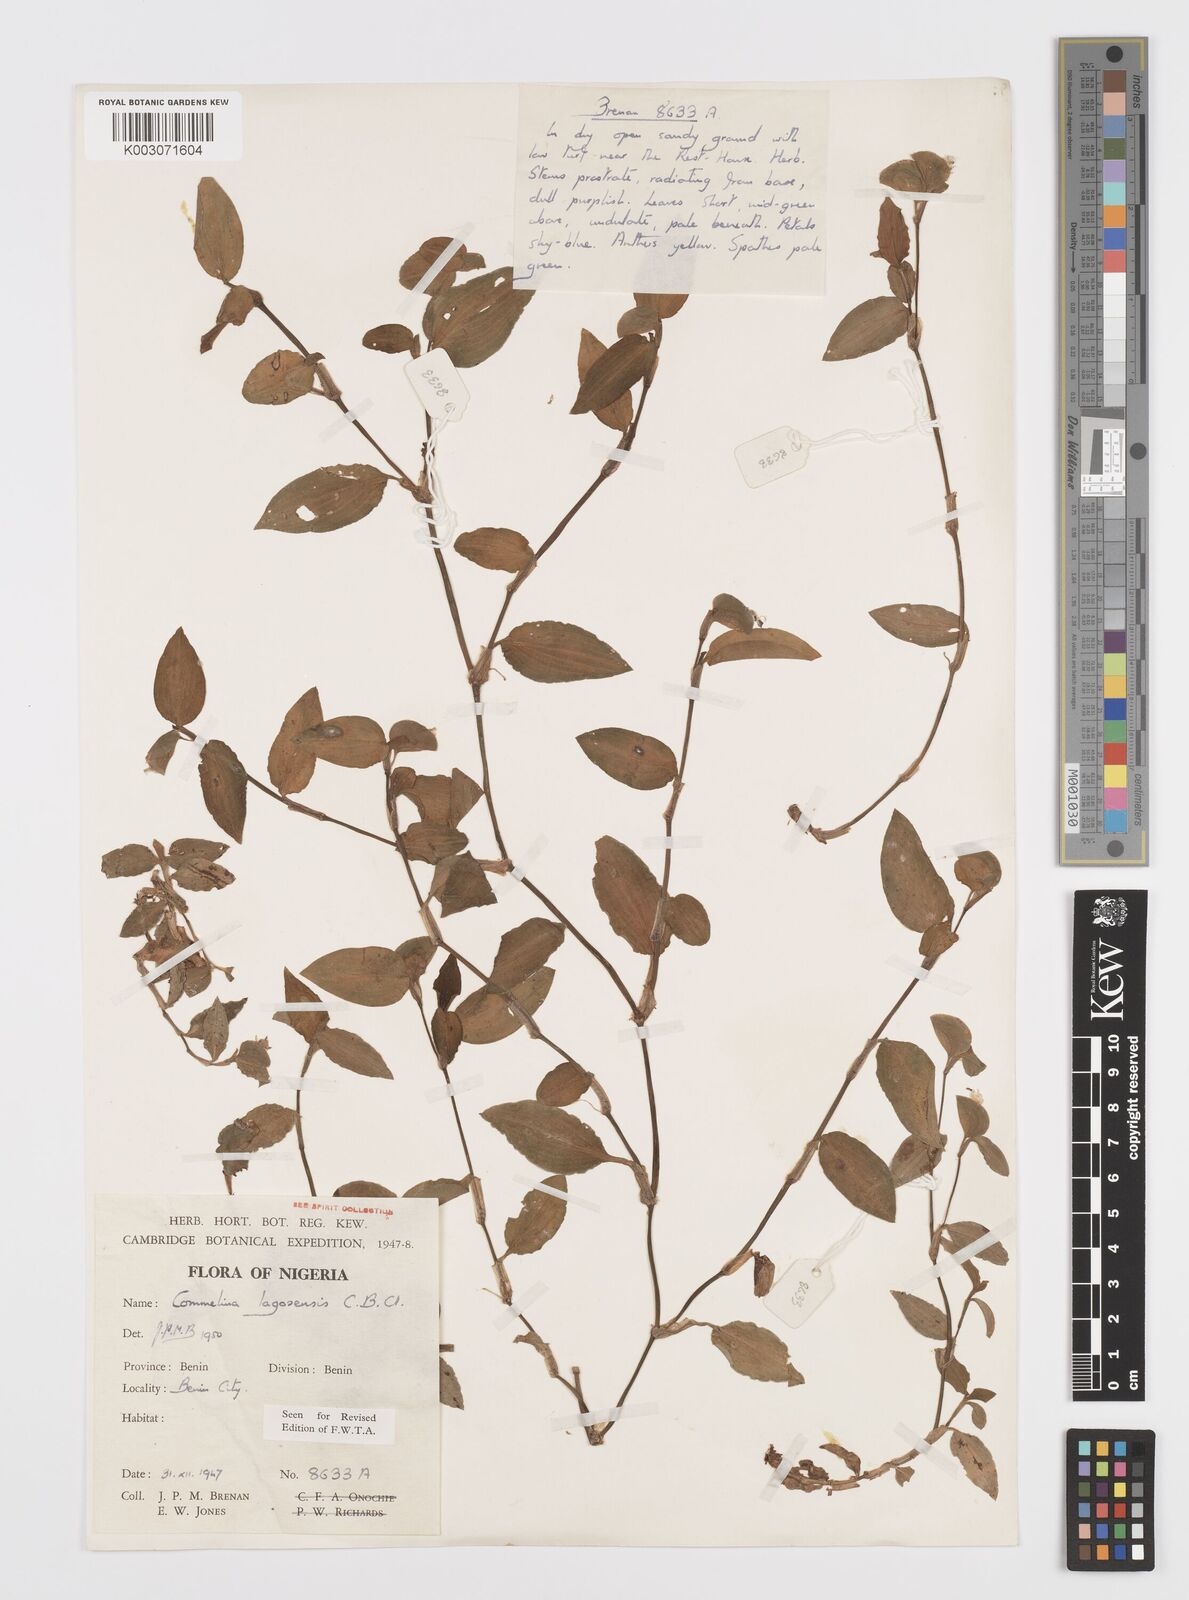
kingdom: Plantae
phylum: Tracheophyta
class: Liliopsida
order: Commelinales
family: Commelinaceae
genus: Commelina
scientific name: Commelina bracteosa
